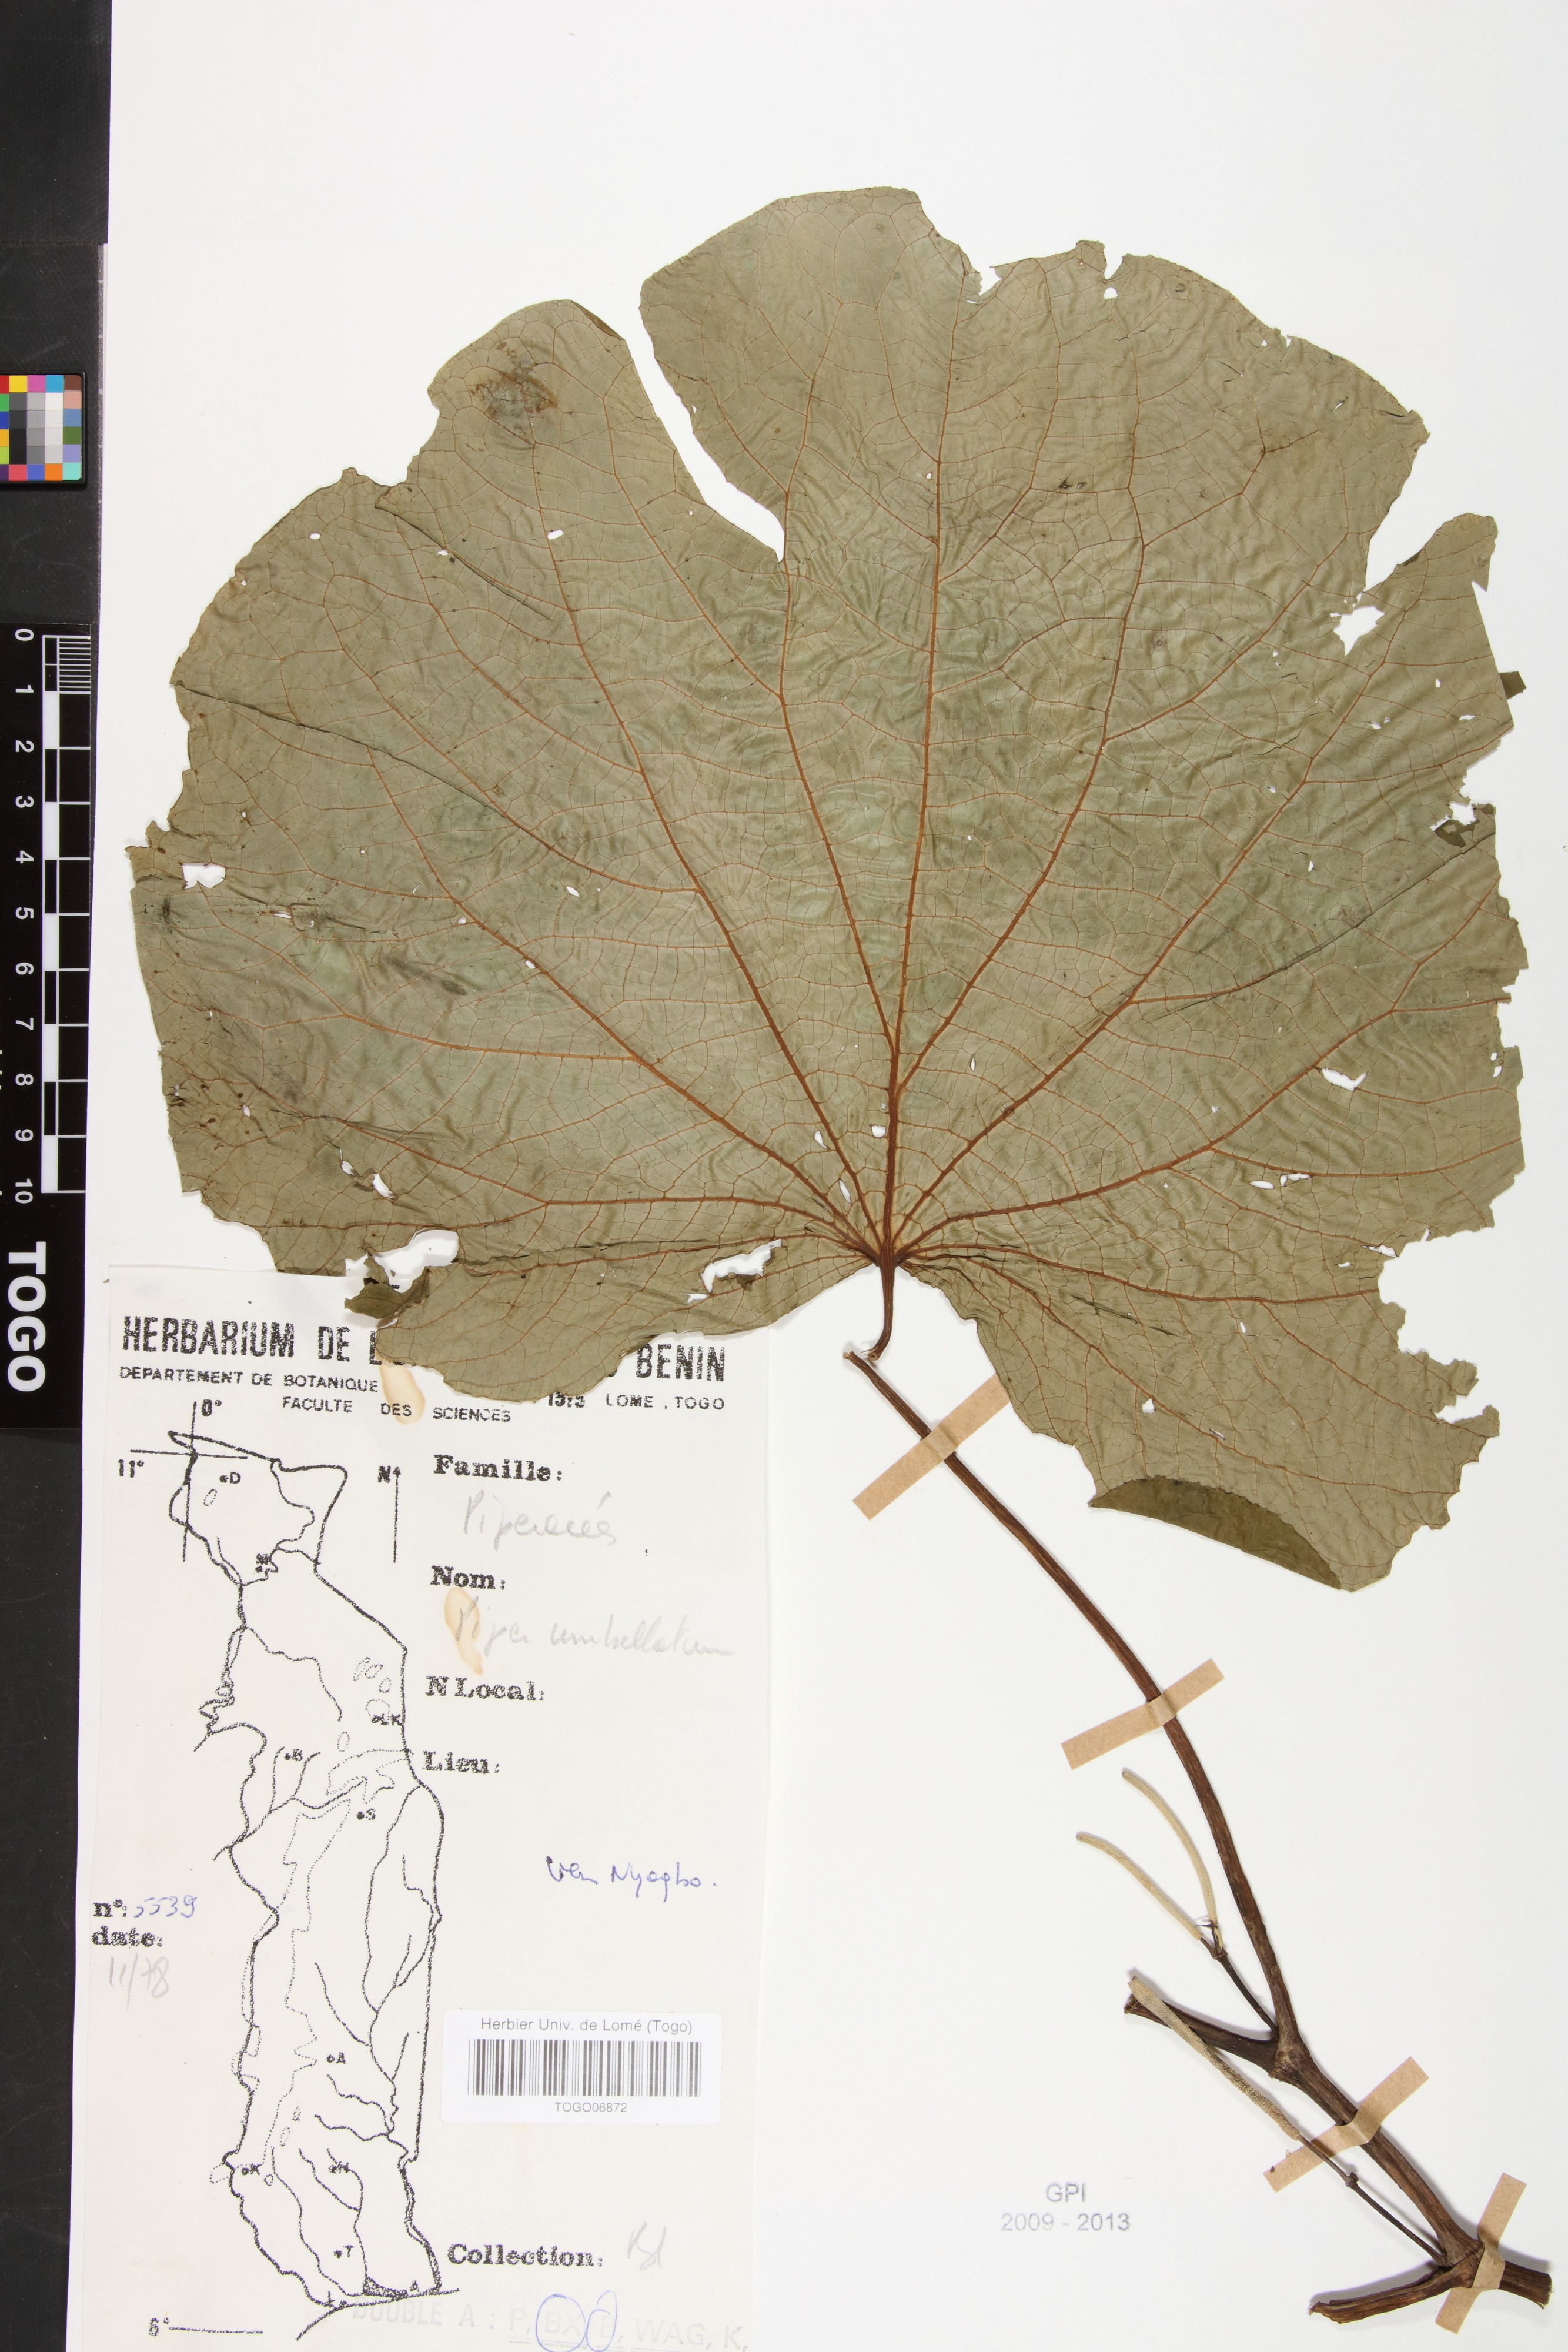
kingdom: Plantae
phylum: Tracheophyta
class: Magnoliopsida
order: Piperales
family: Piperaceae
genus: Piper
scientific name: Piper umbellatum
